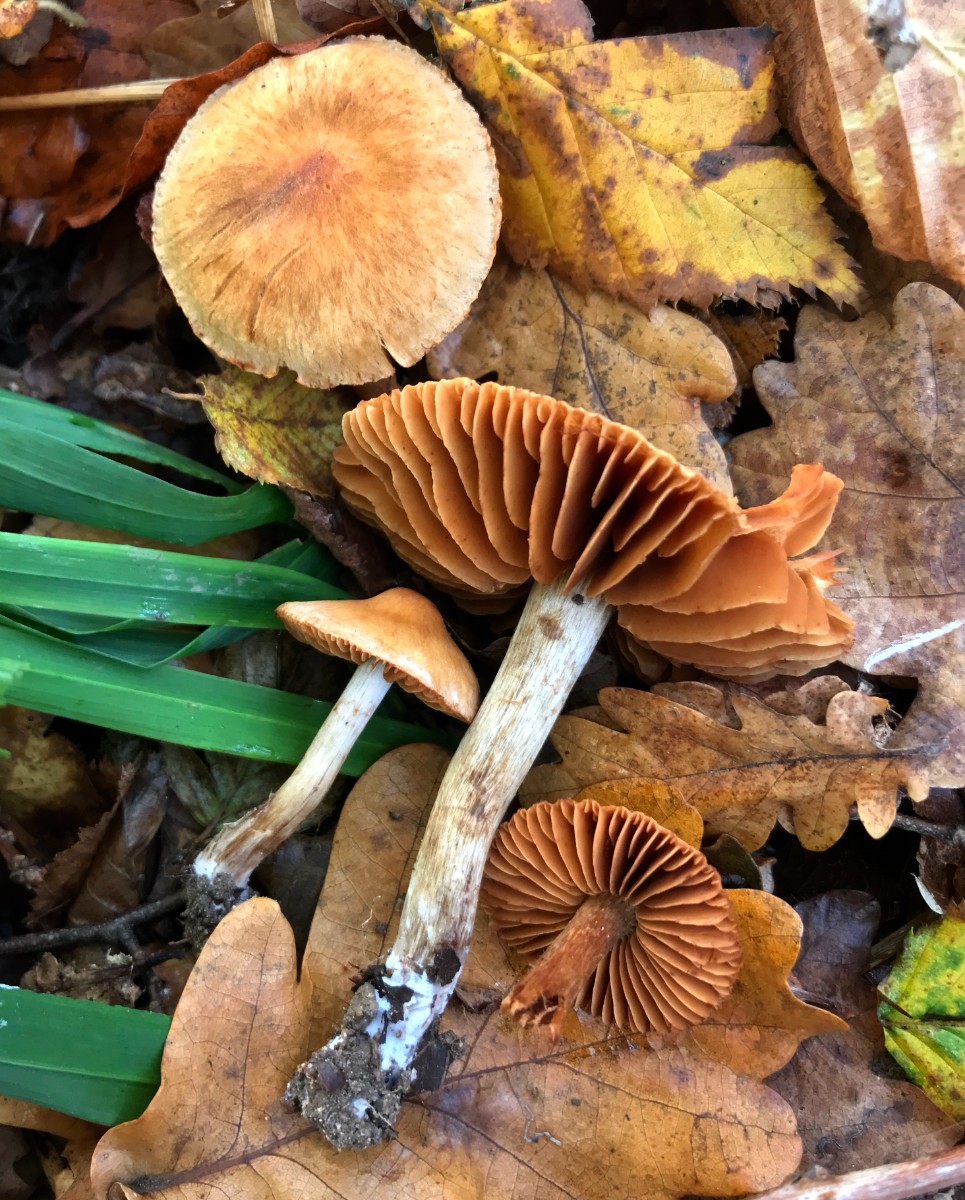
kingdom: Fungi
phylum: Basidiomycota
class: Agaricomycetes
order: Agaricales
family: Cortinariaceae
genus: Cortinarius
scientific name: Cortinarius
